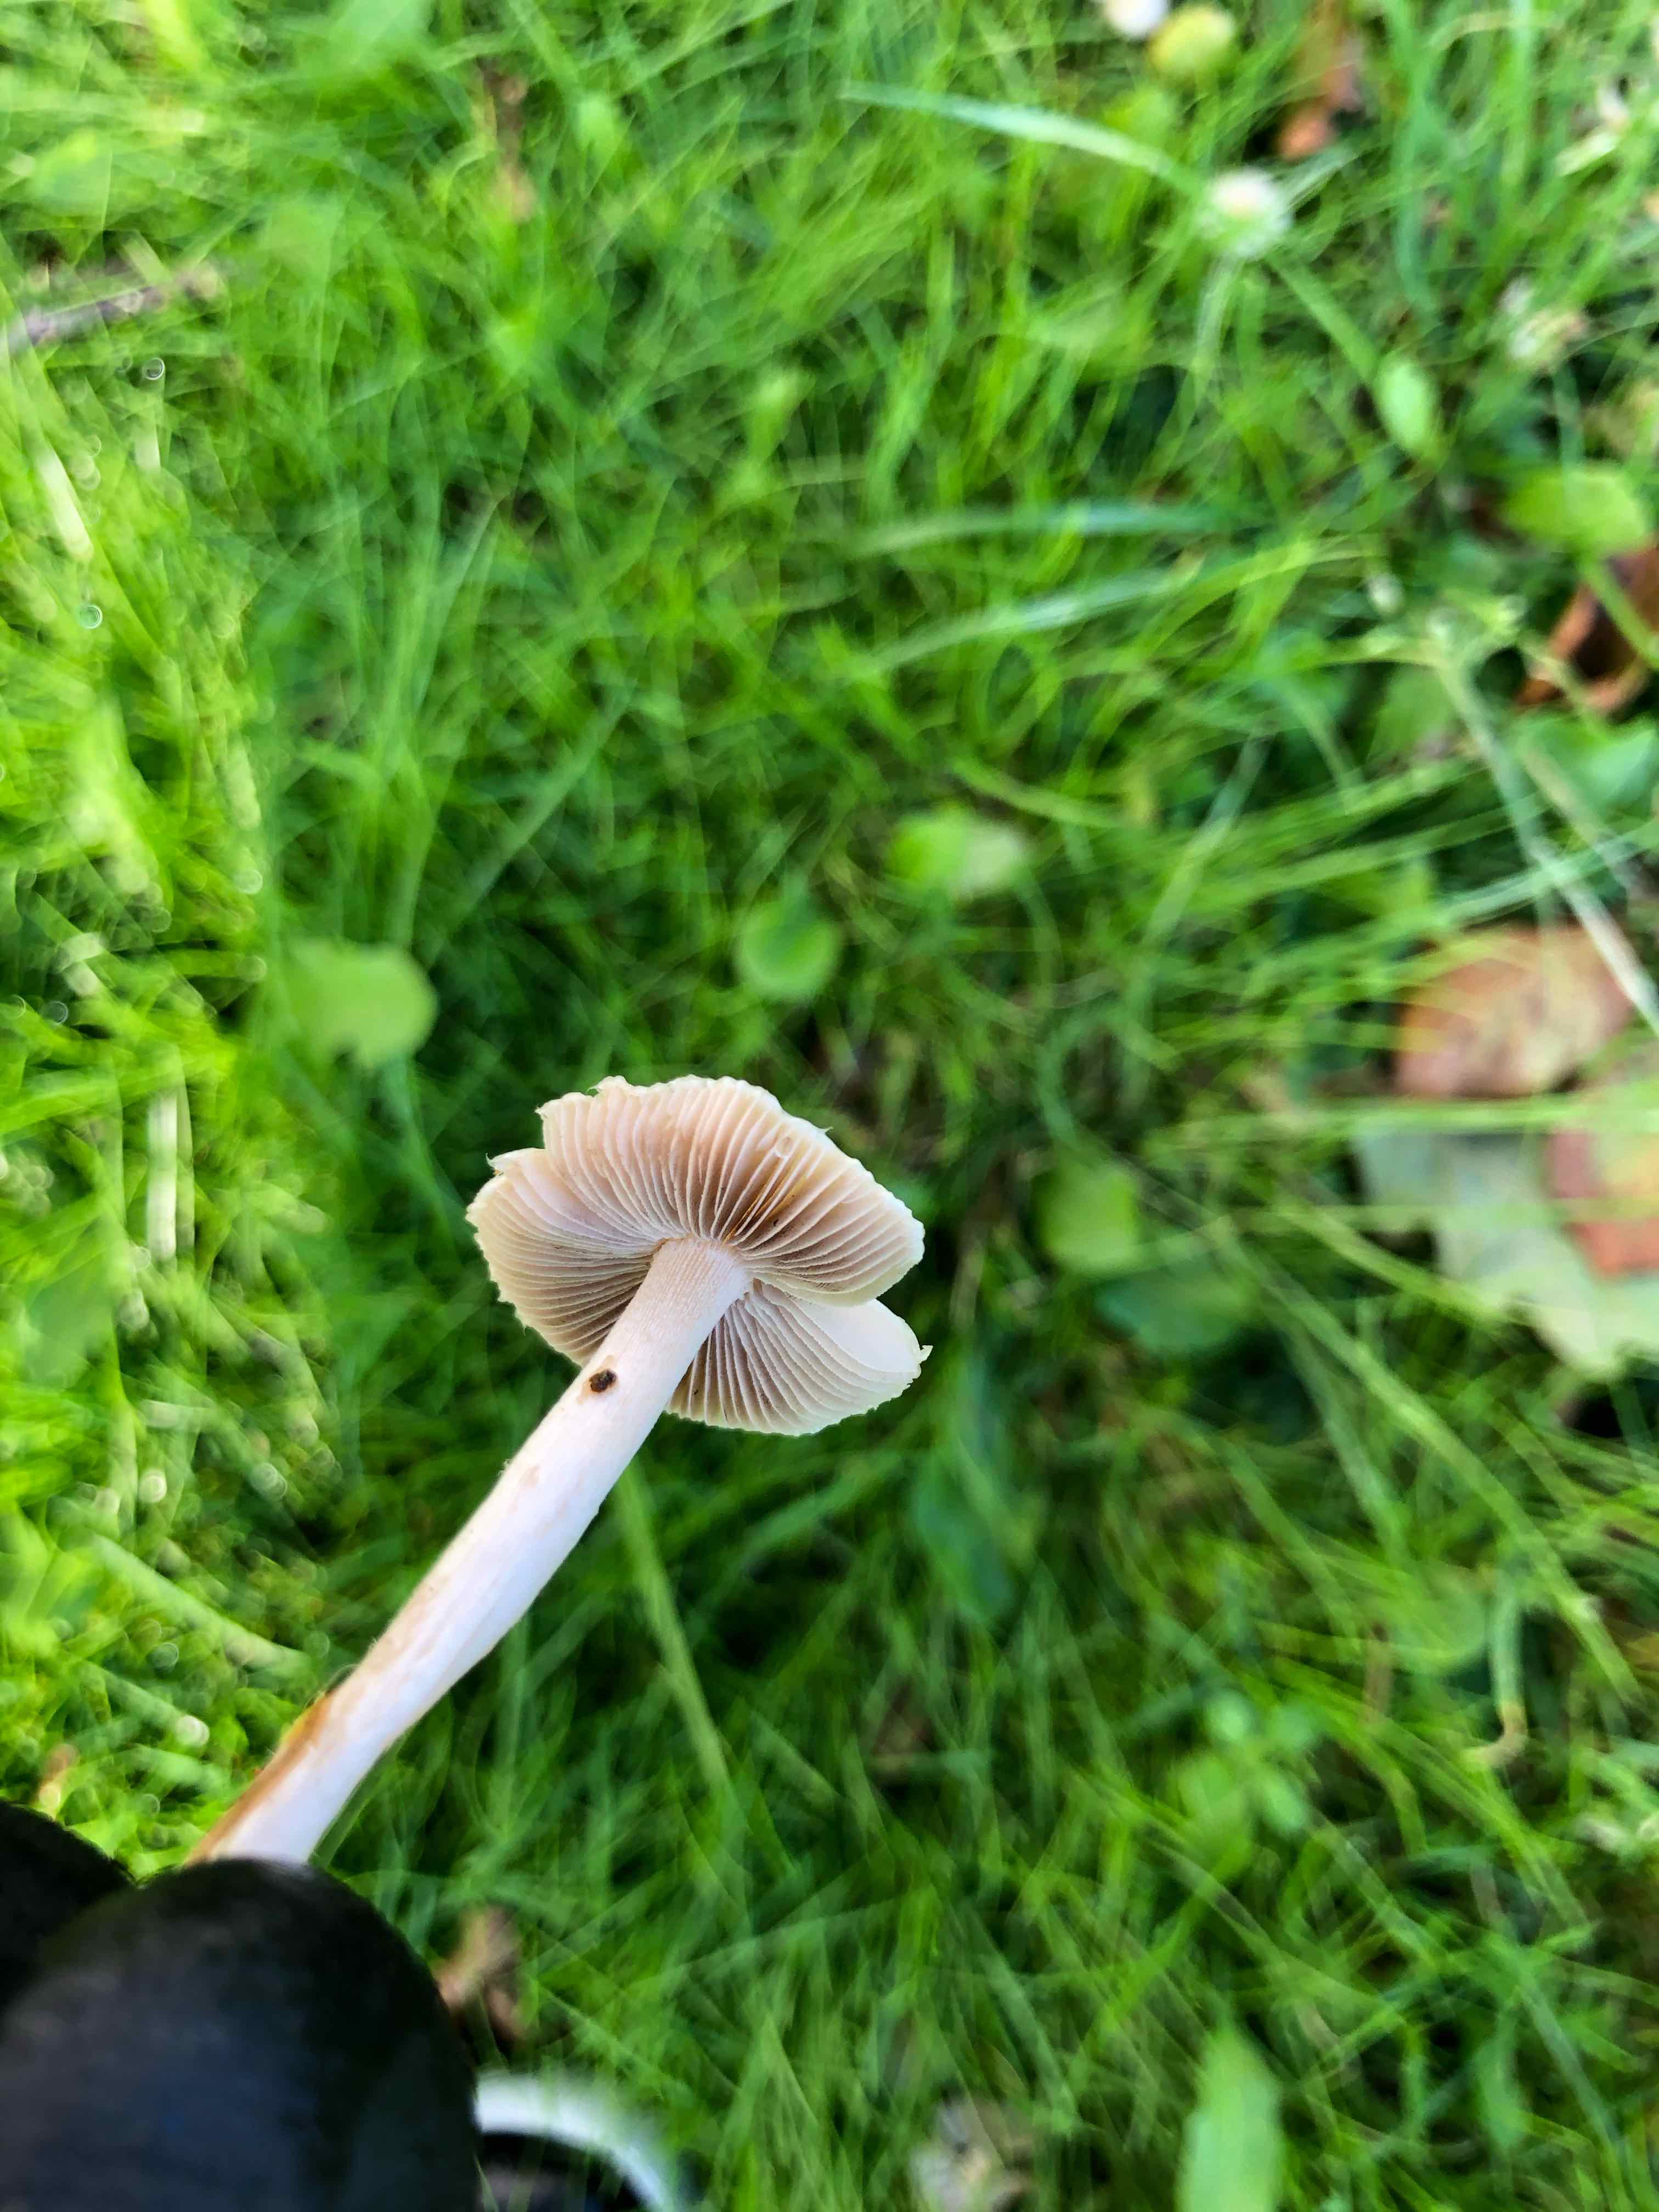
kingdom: Fungi
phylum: Basidiomycota
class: Agaricomycetes
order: Agaricales
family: Inocybaceae
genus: Inocybe
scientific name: Inocybe
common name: trævlhat
